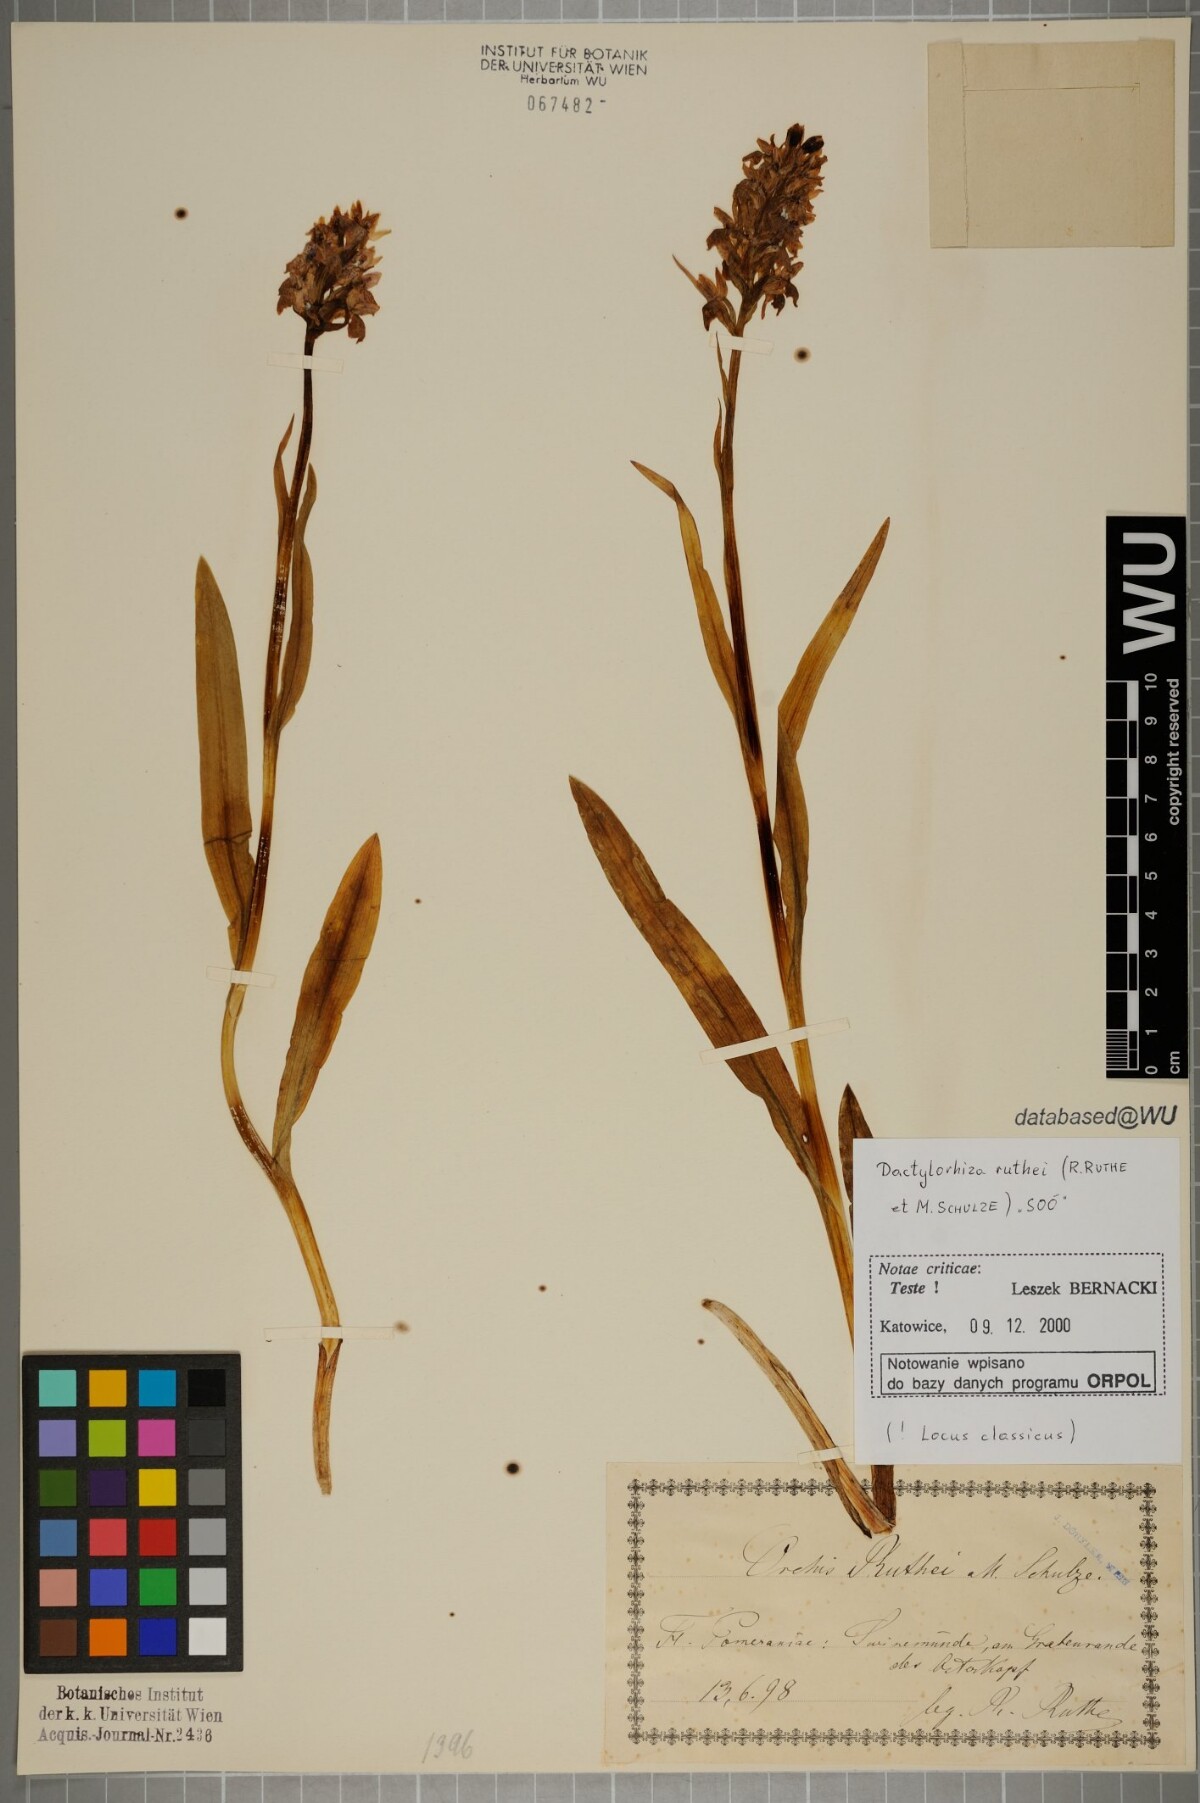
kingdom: Plantae
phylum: Tracheophyta
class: Liliopsida
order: Asparagales
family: Orchidaceae
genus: Dactylorhiza
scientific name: Dactylorhiza kerneriorum
